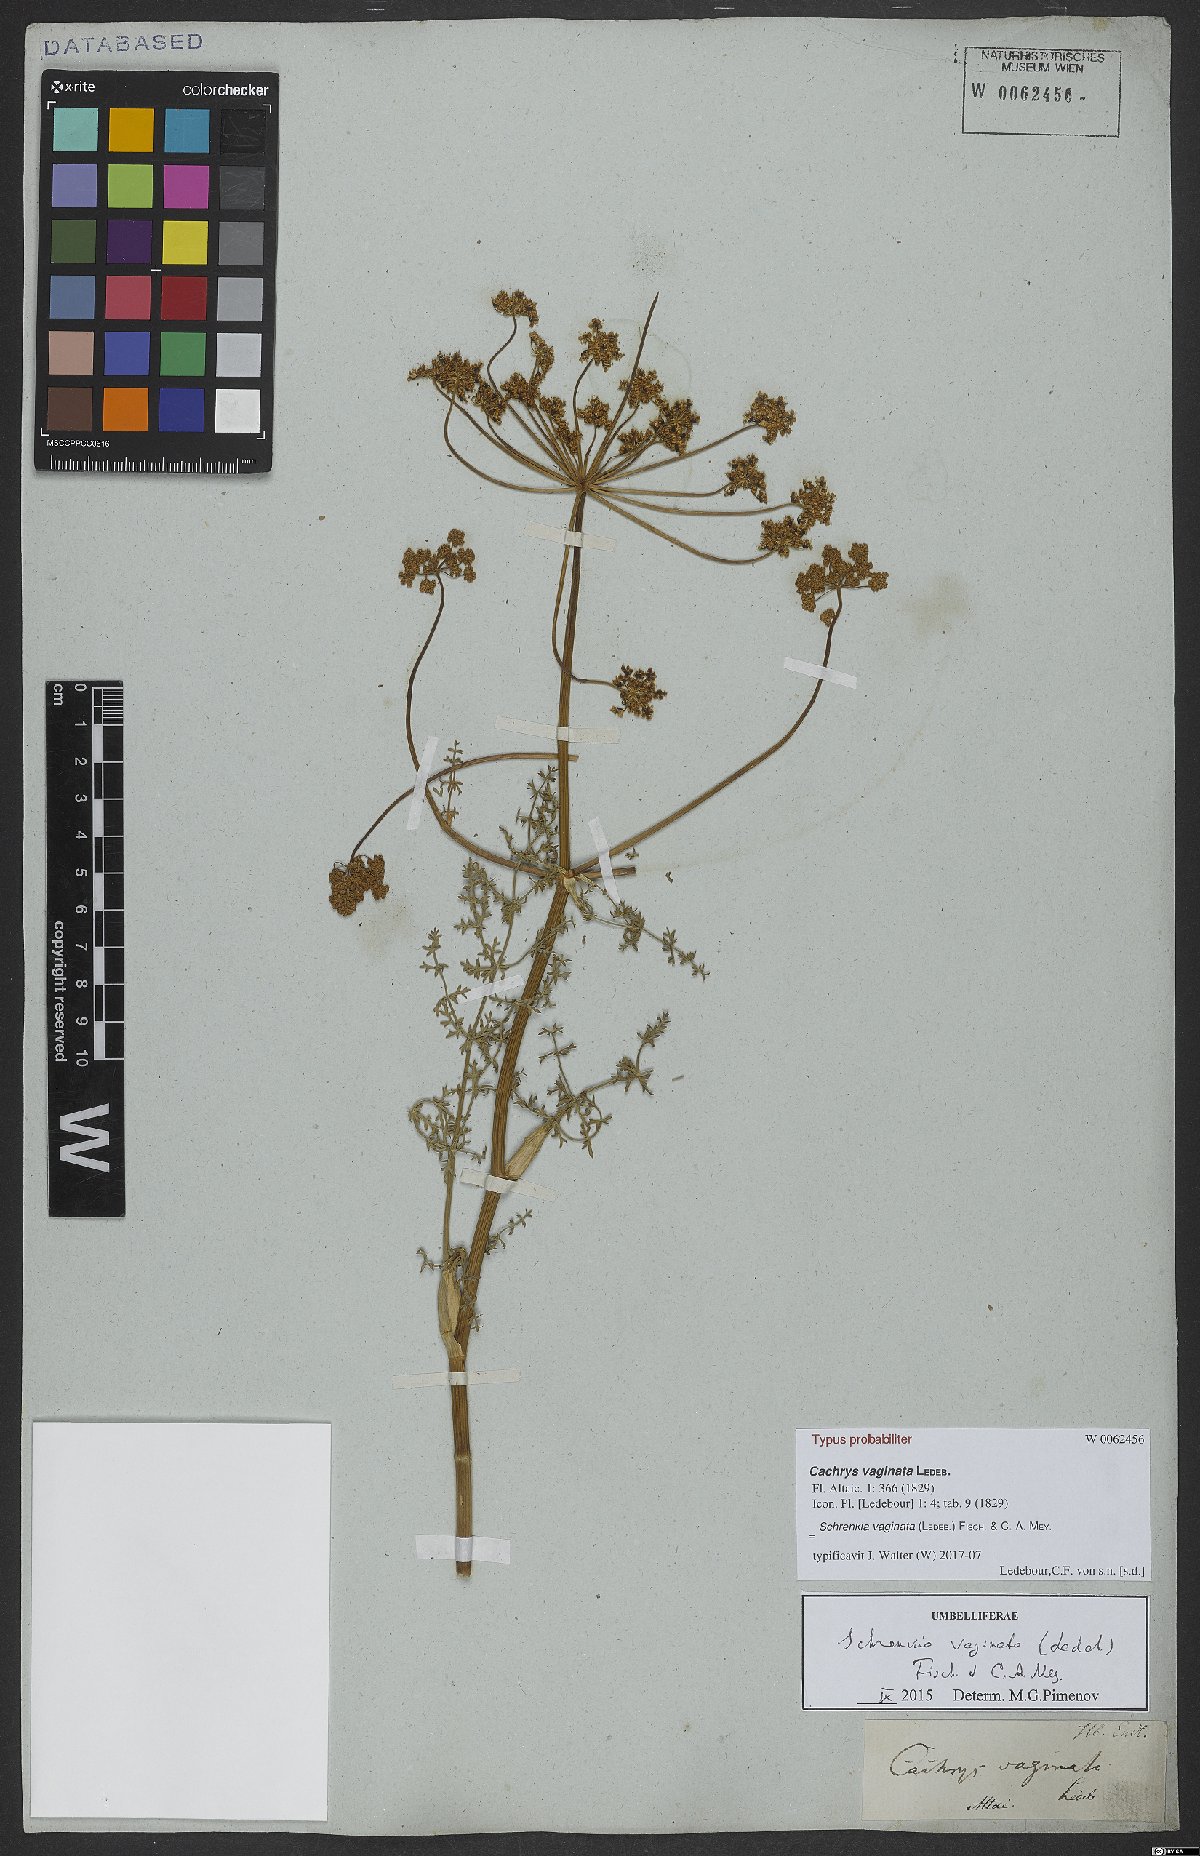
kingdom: Plantae
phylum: Tracheophyta
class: Magnoliopsida
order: Apiales
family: Apiaceae
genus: Schrenkia
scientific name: Schrenkia vaginata
